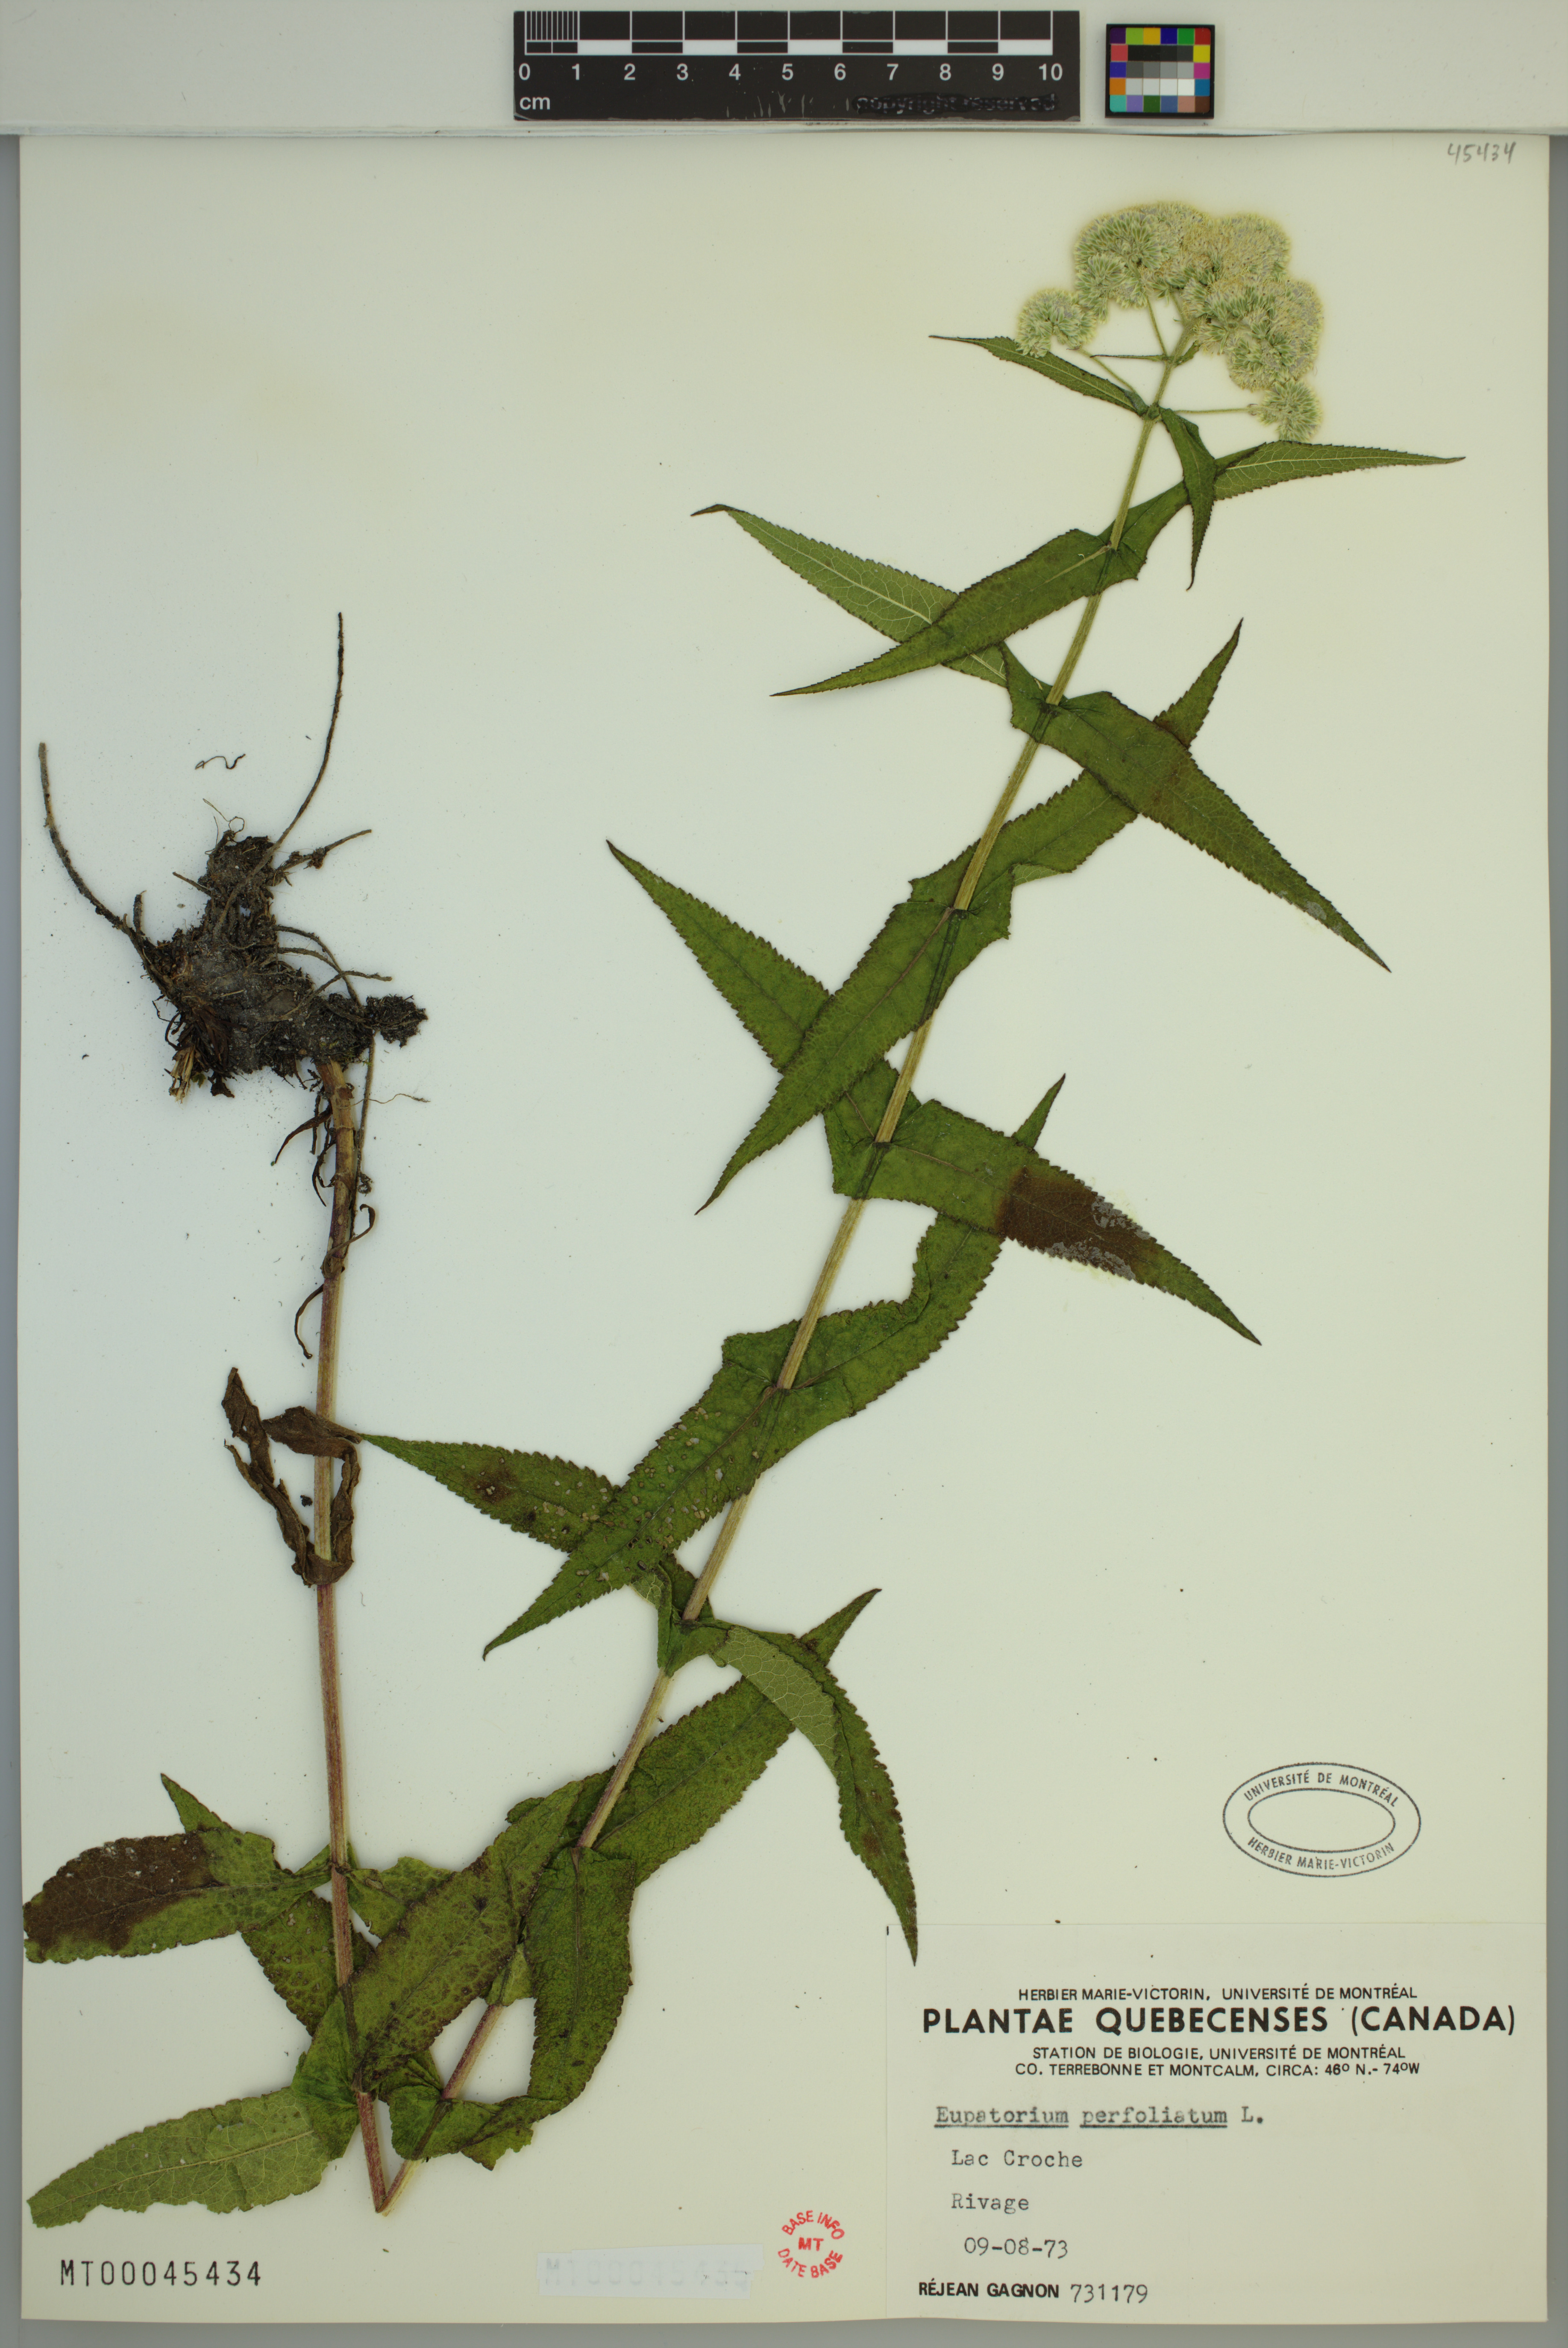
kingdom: Plantae
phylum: Tracheophyta
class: Magnoliopsida
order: Asterales
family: Asteraceae
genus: Eupatorium
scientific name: Eupatorium perfoliatum
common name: Boneset
